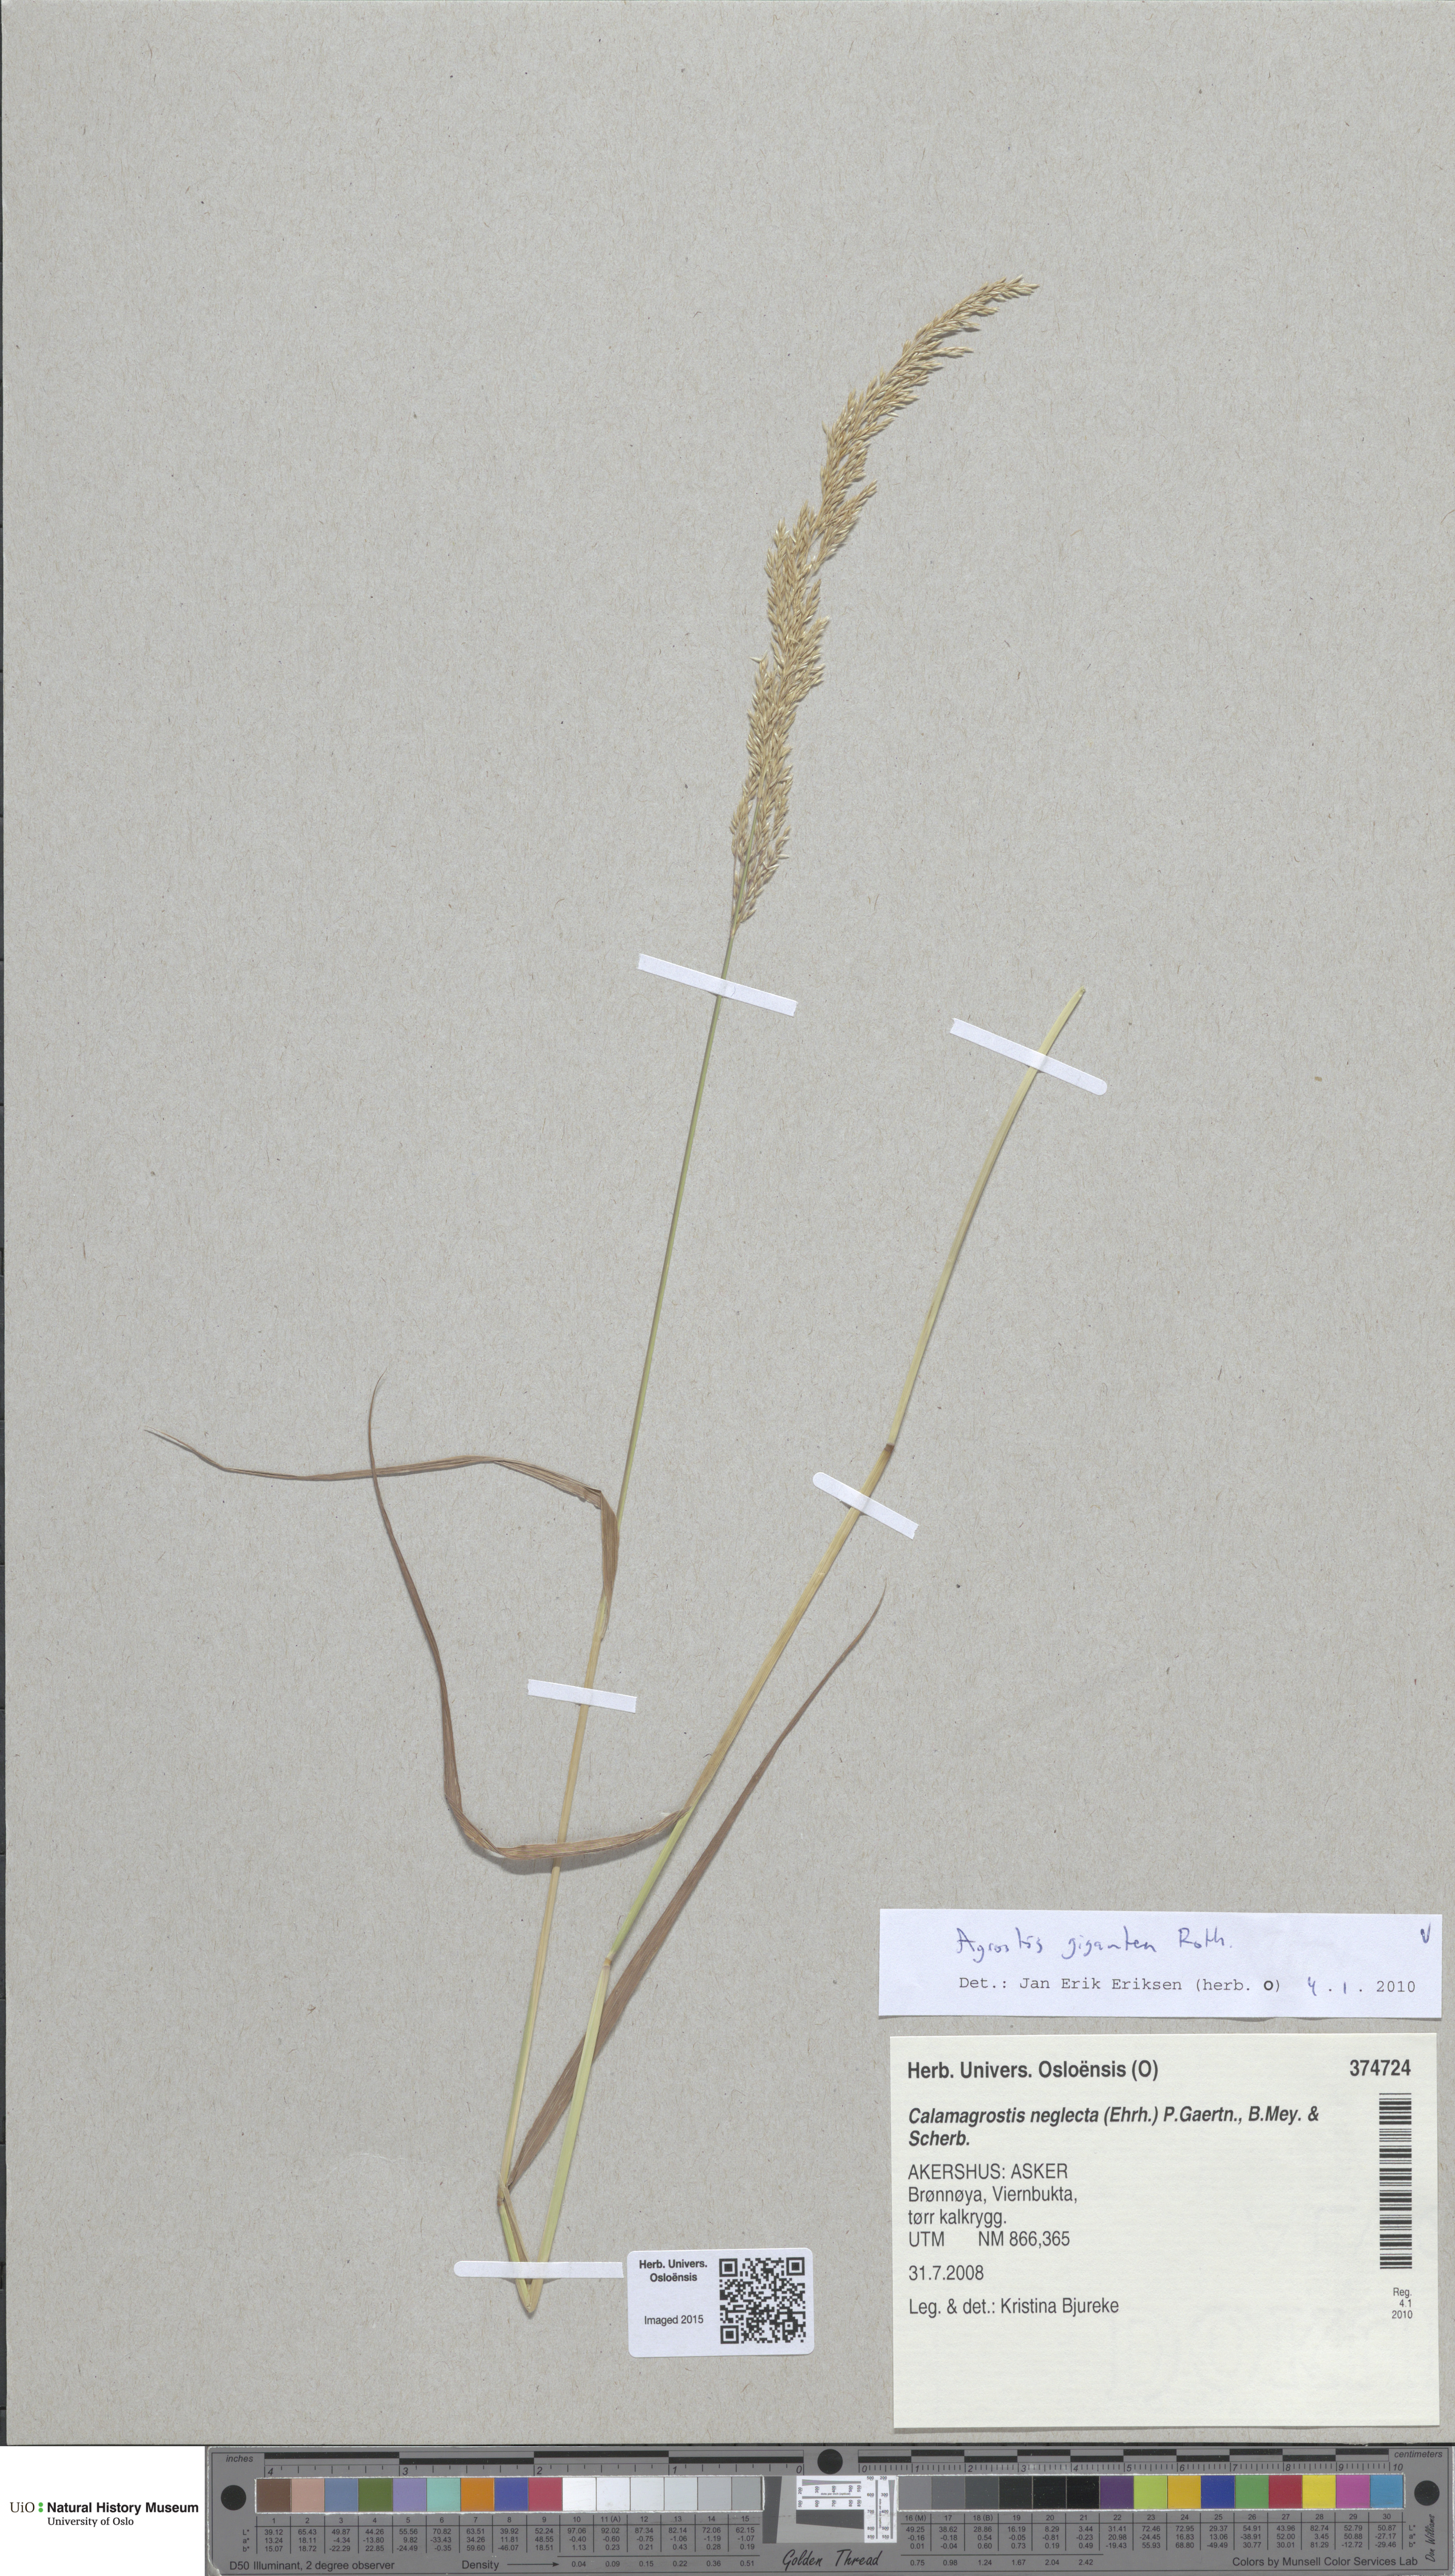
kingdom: Plantae
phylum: Tracheophyta
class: Liliopsida
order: Poales
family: Poaceae
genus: Agrostis
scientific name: Agrostis gigantea
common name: Black bent
